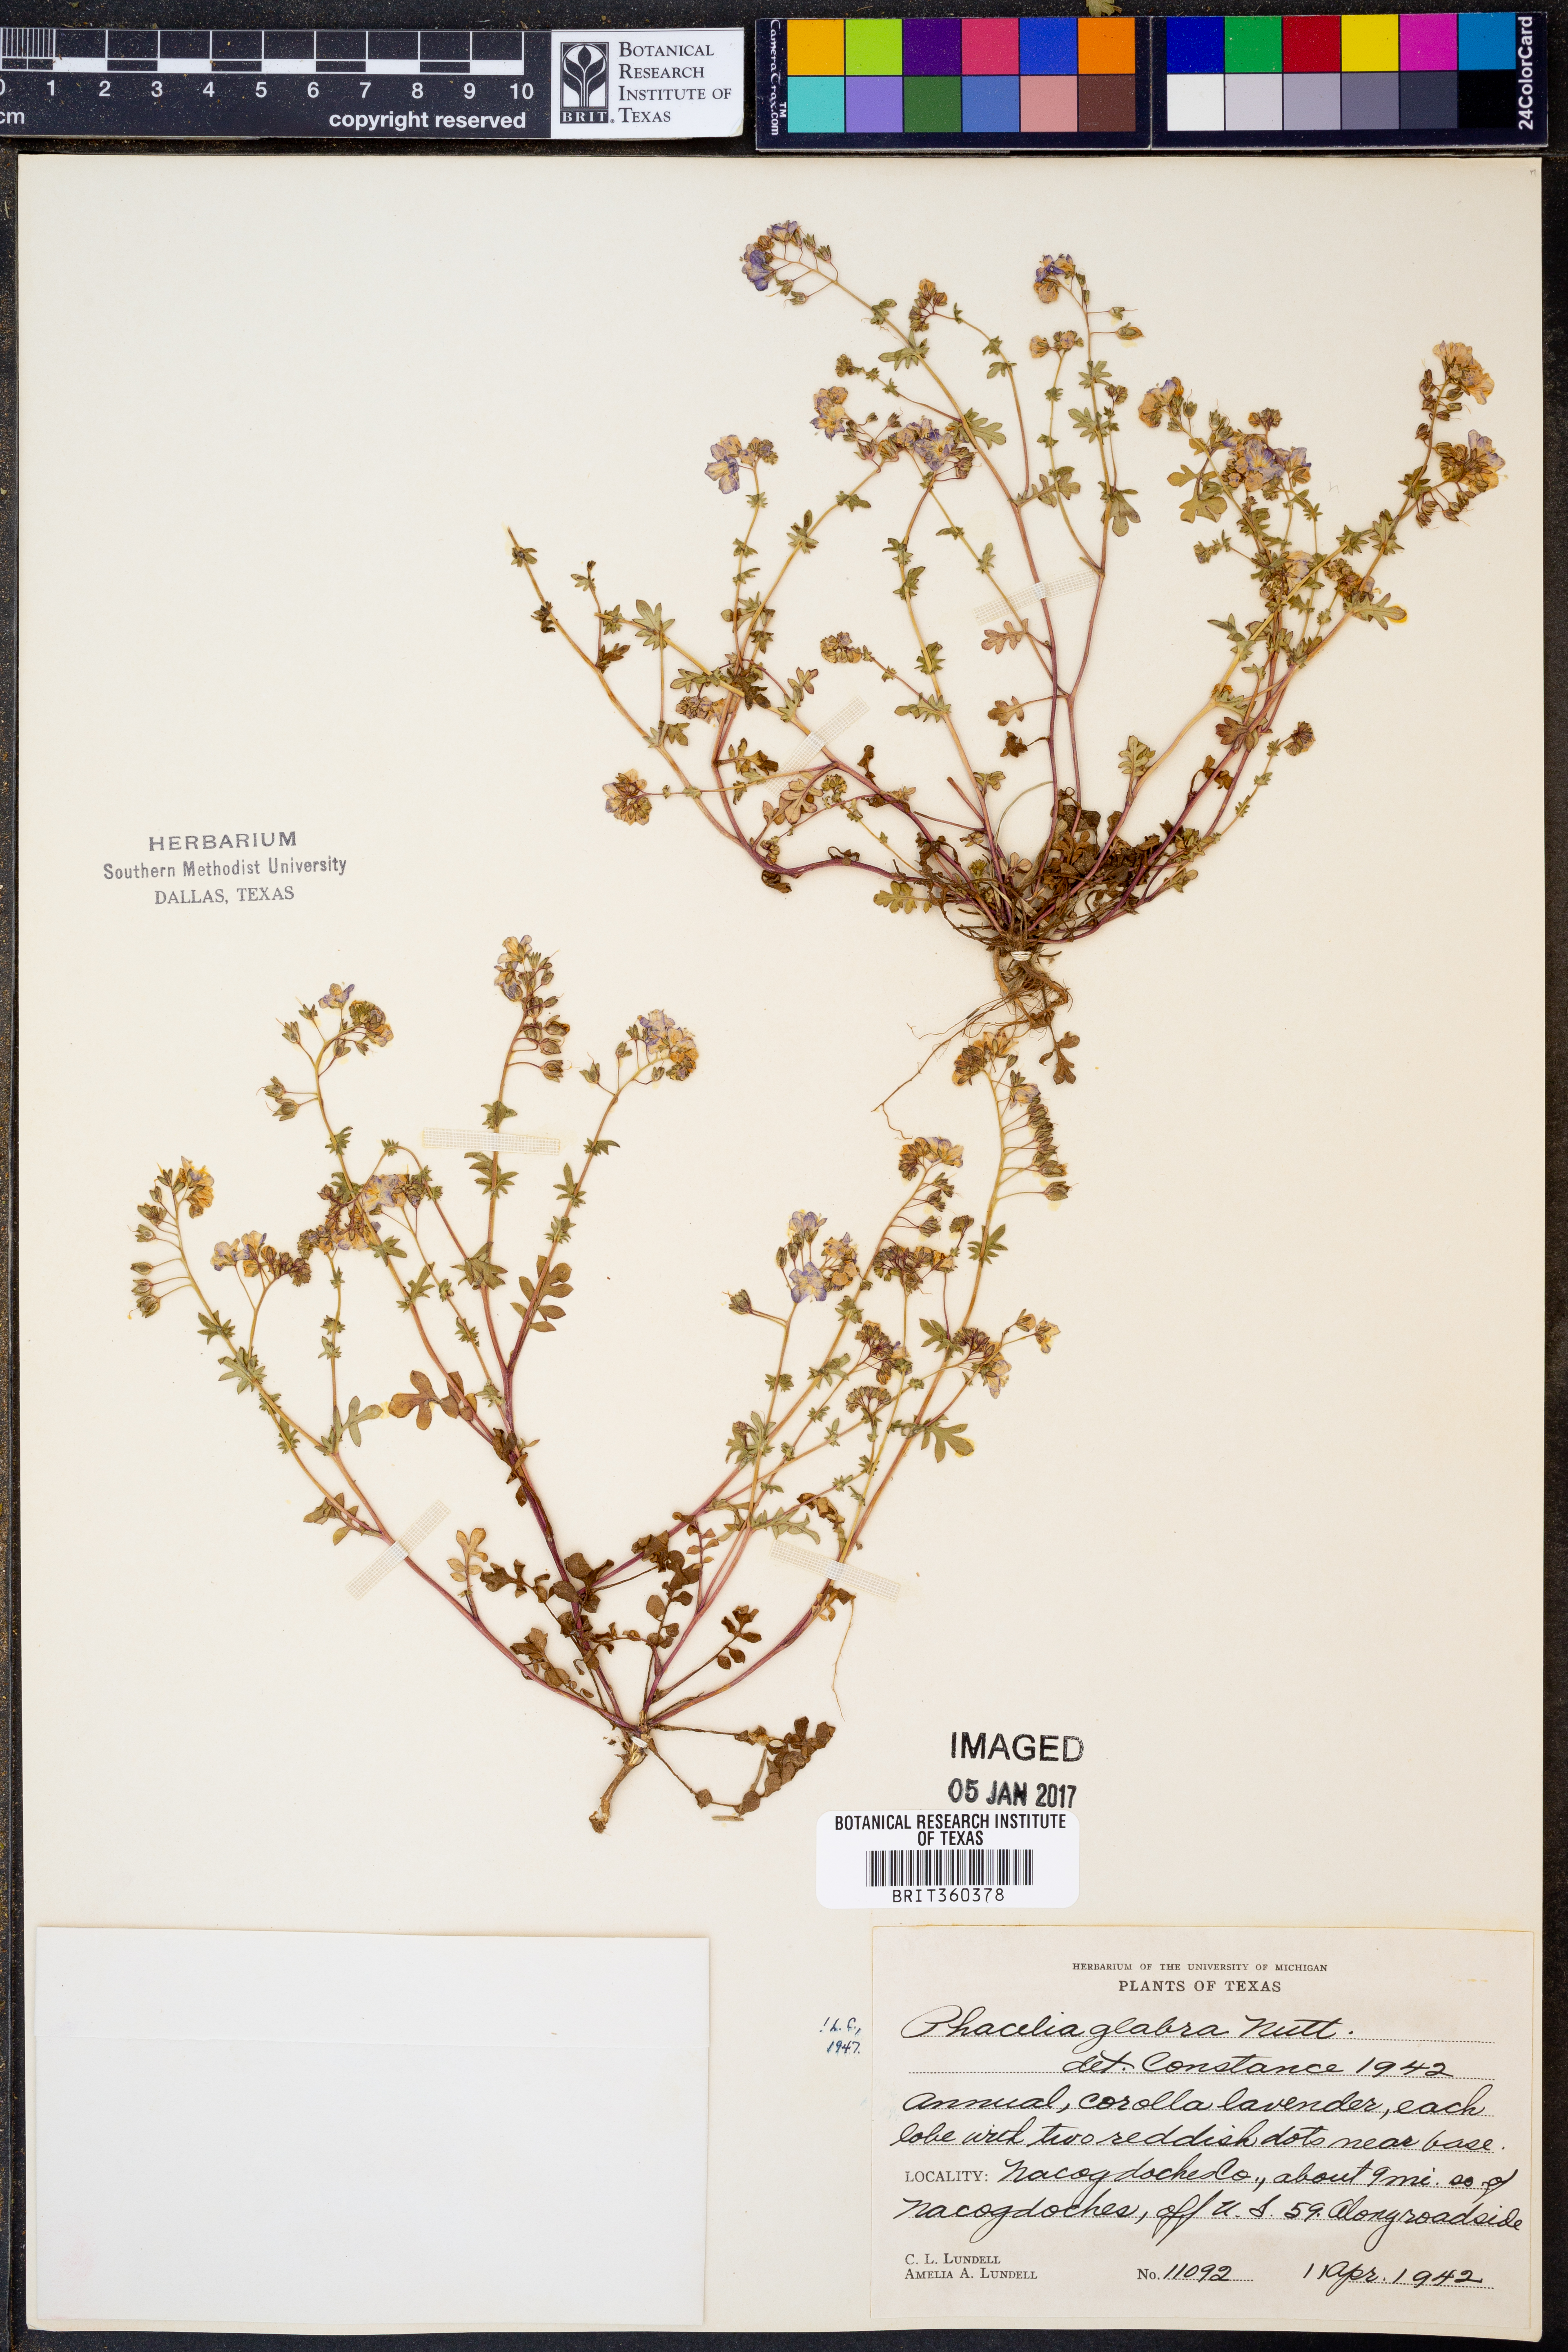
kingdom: Plantae
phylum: Tracheophyta
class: Magnoliopsida
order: Boraginales
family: Hydrophyllaceae
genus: Phacelia
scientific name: Phacelia glabra
